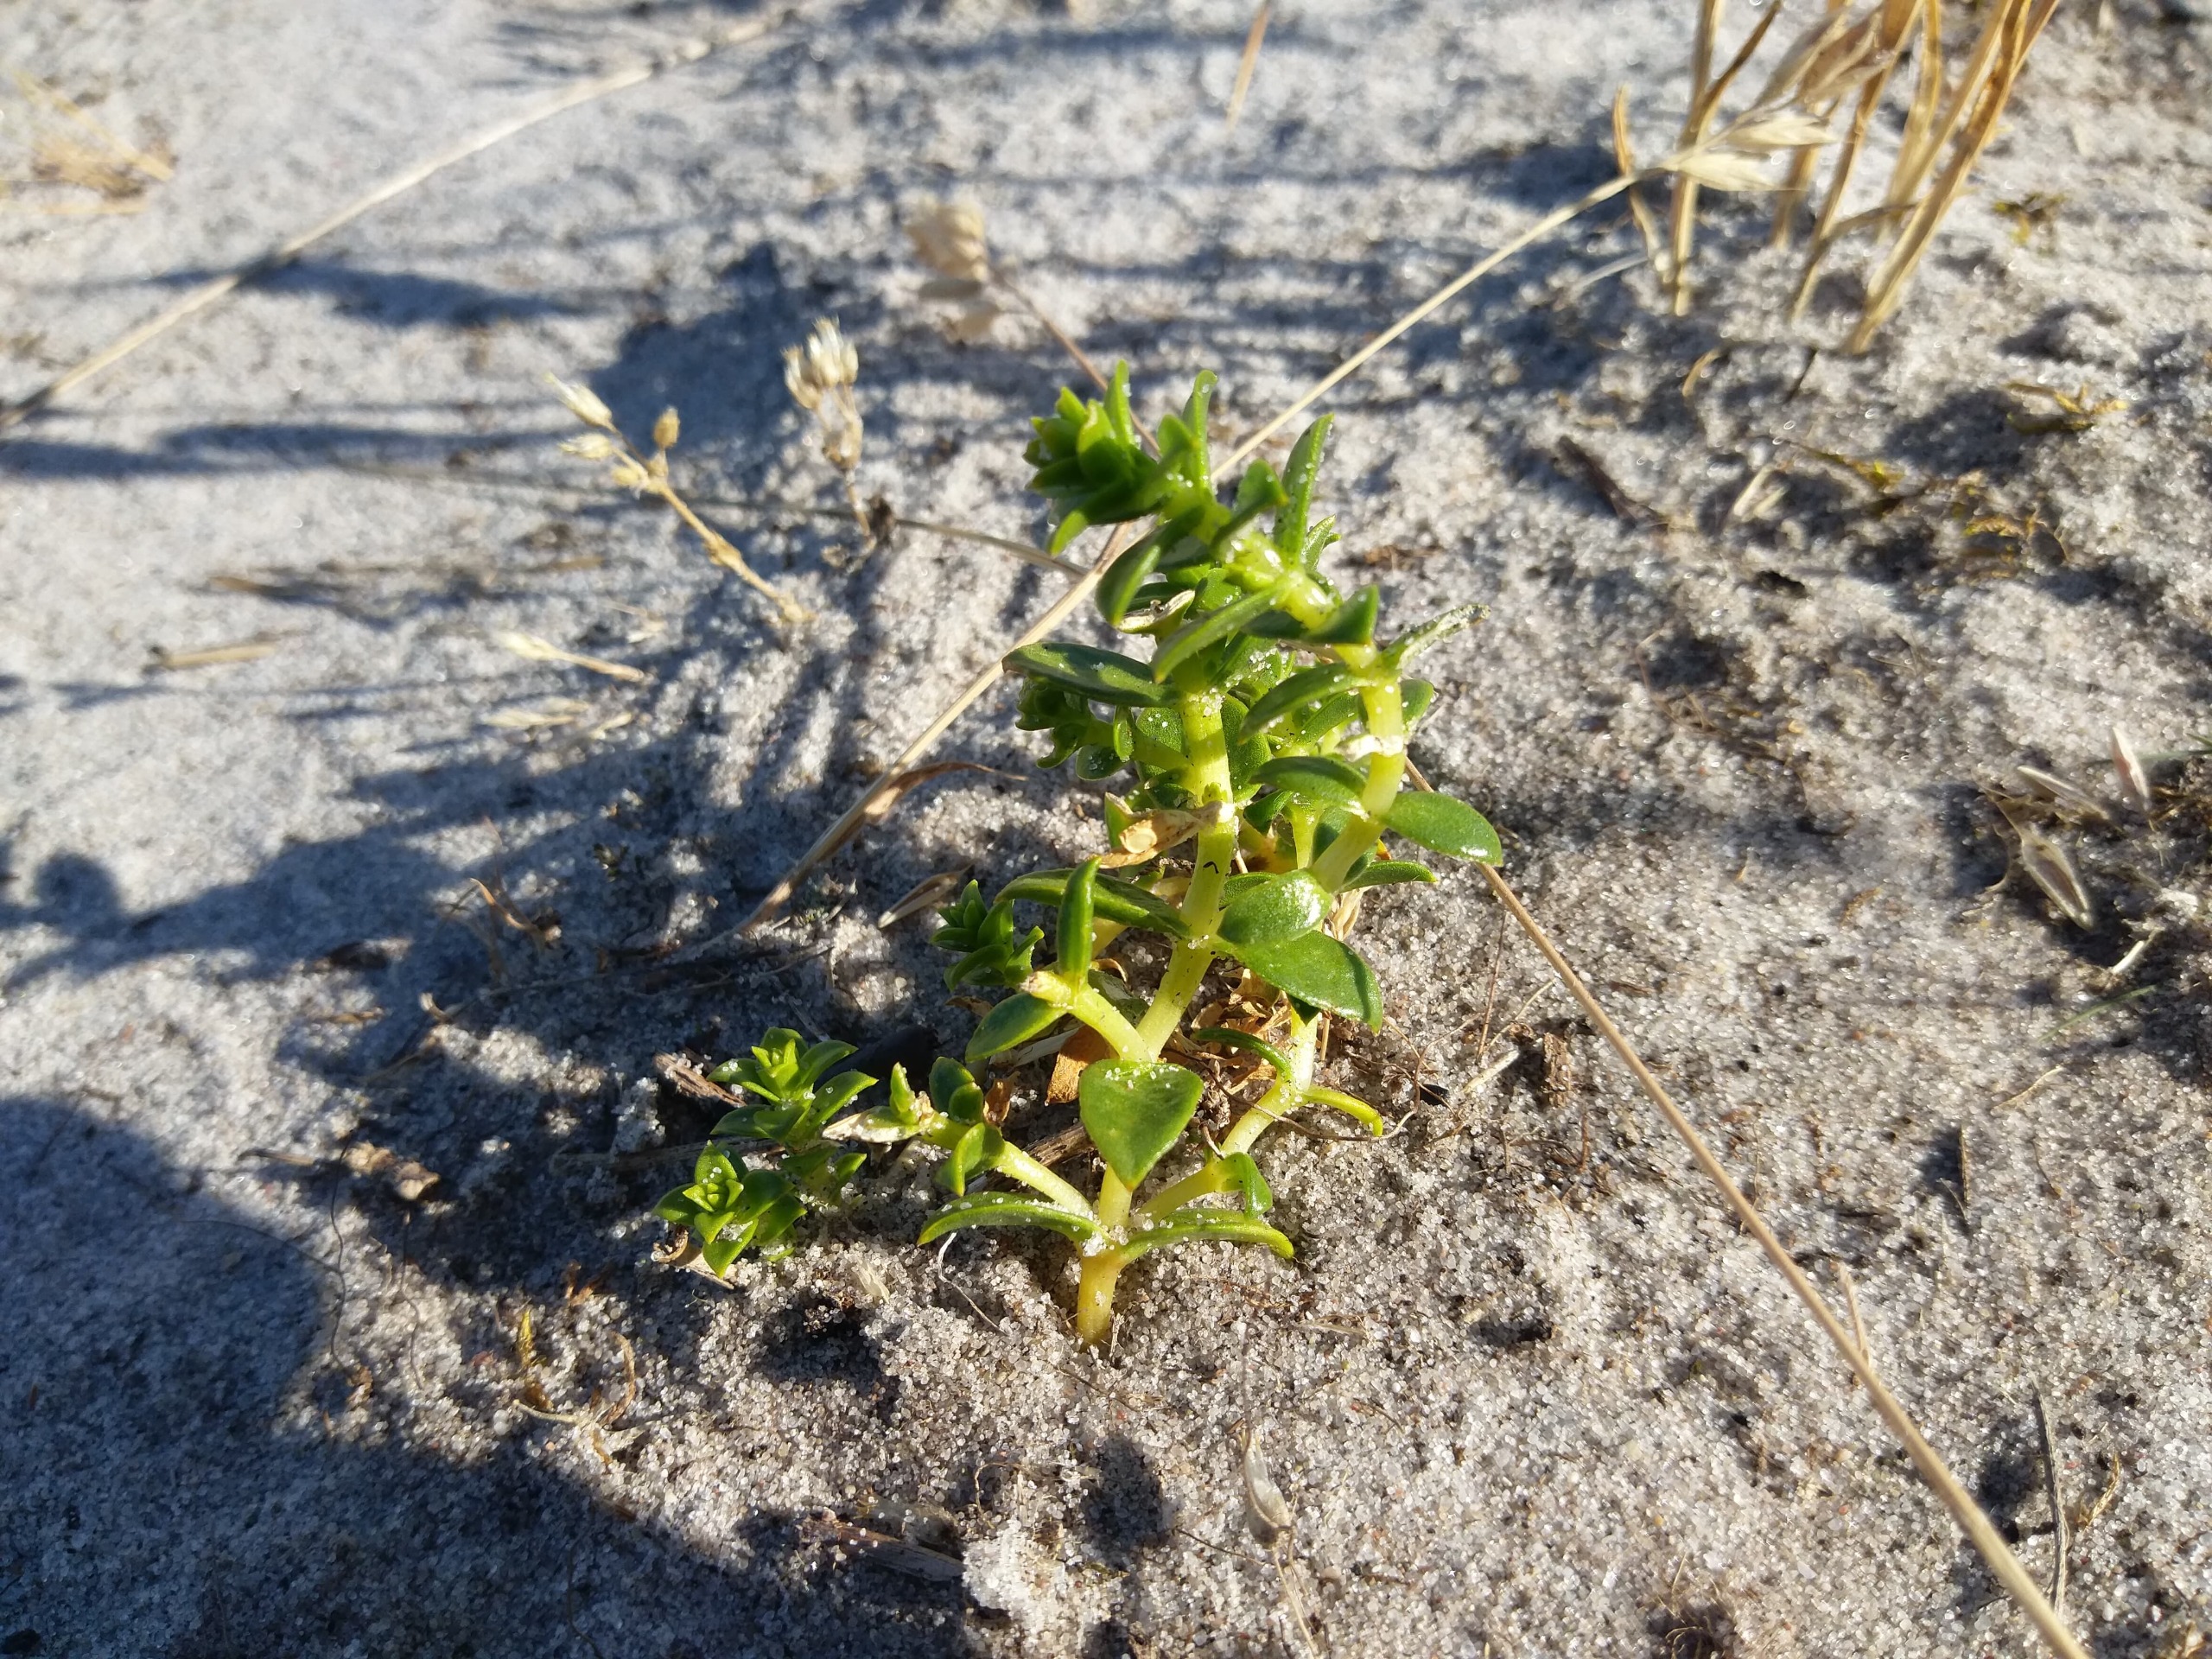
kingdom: Plantae
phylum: Tracheophyta
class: Magnoliopsida
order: Caryophyllales
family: Caryophyllaceae
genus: Honckenya
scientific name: Honckenya peploides
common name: Strandarve
